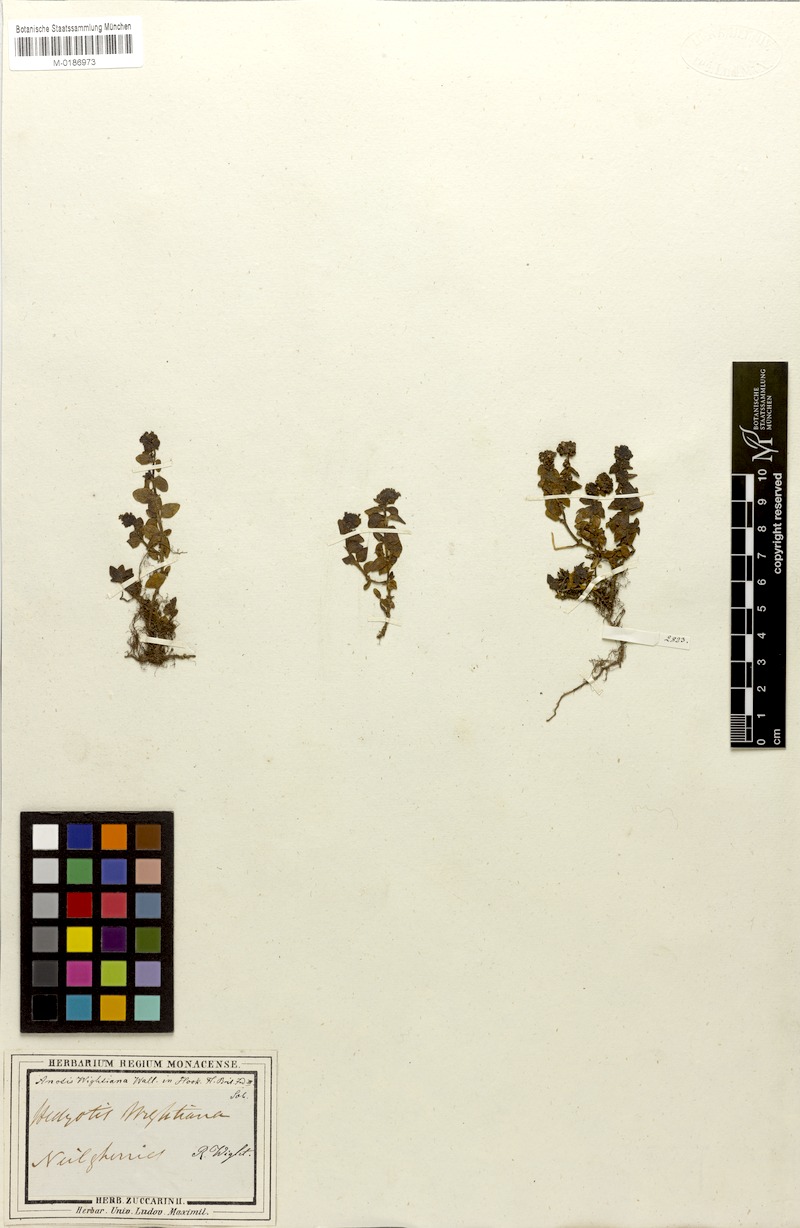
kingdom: Plantae
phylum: Tracheophyta
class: Magnoliopsida
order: Gentianales
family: Rubiaceae
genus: Neanotis
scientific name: Neanotis wightiana
